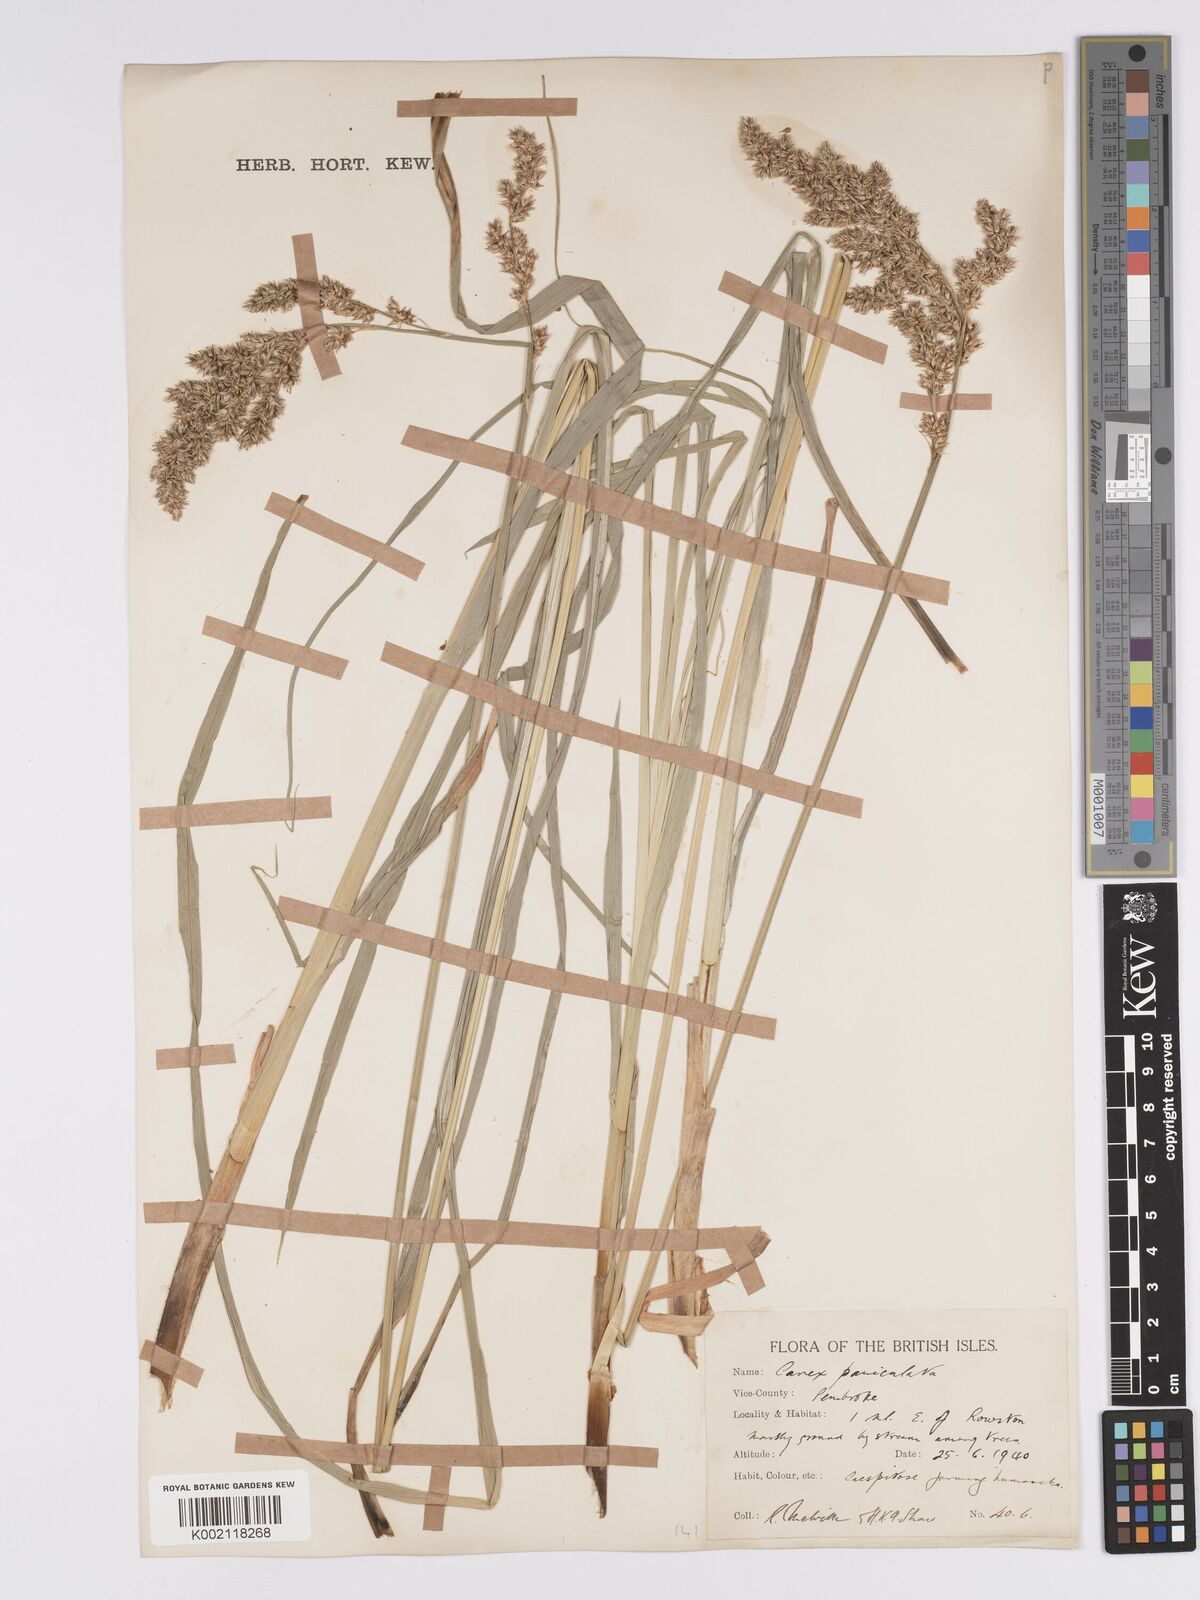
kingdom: Plantae
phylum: Tracheophyta
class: Liliopsida
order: Poales
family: Cyperaceae
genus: Carex
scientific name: Carex paniculata
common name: Greater tussock-sedge
